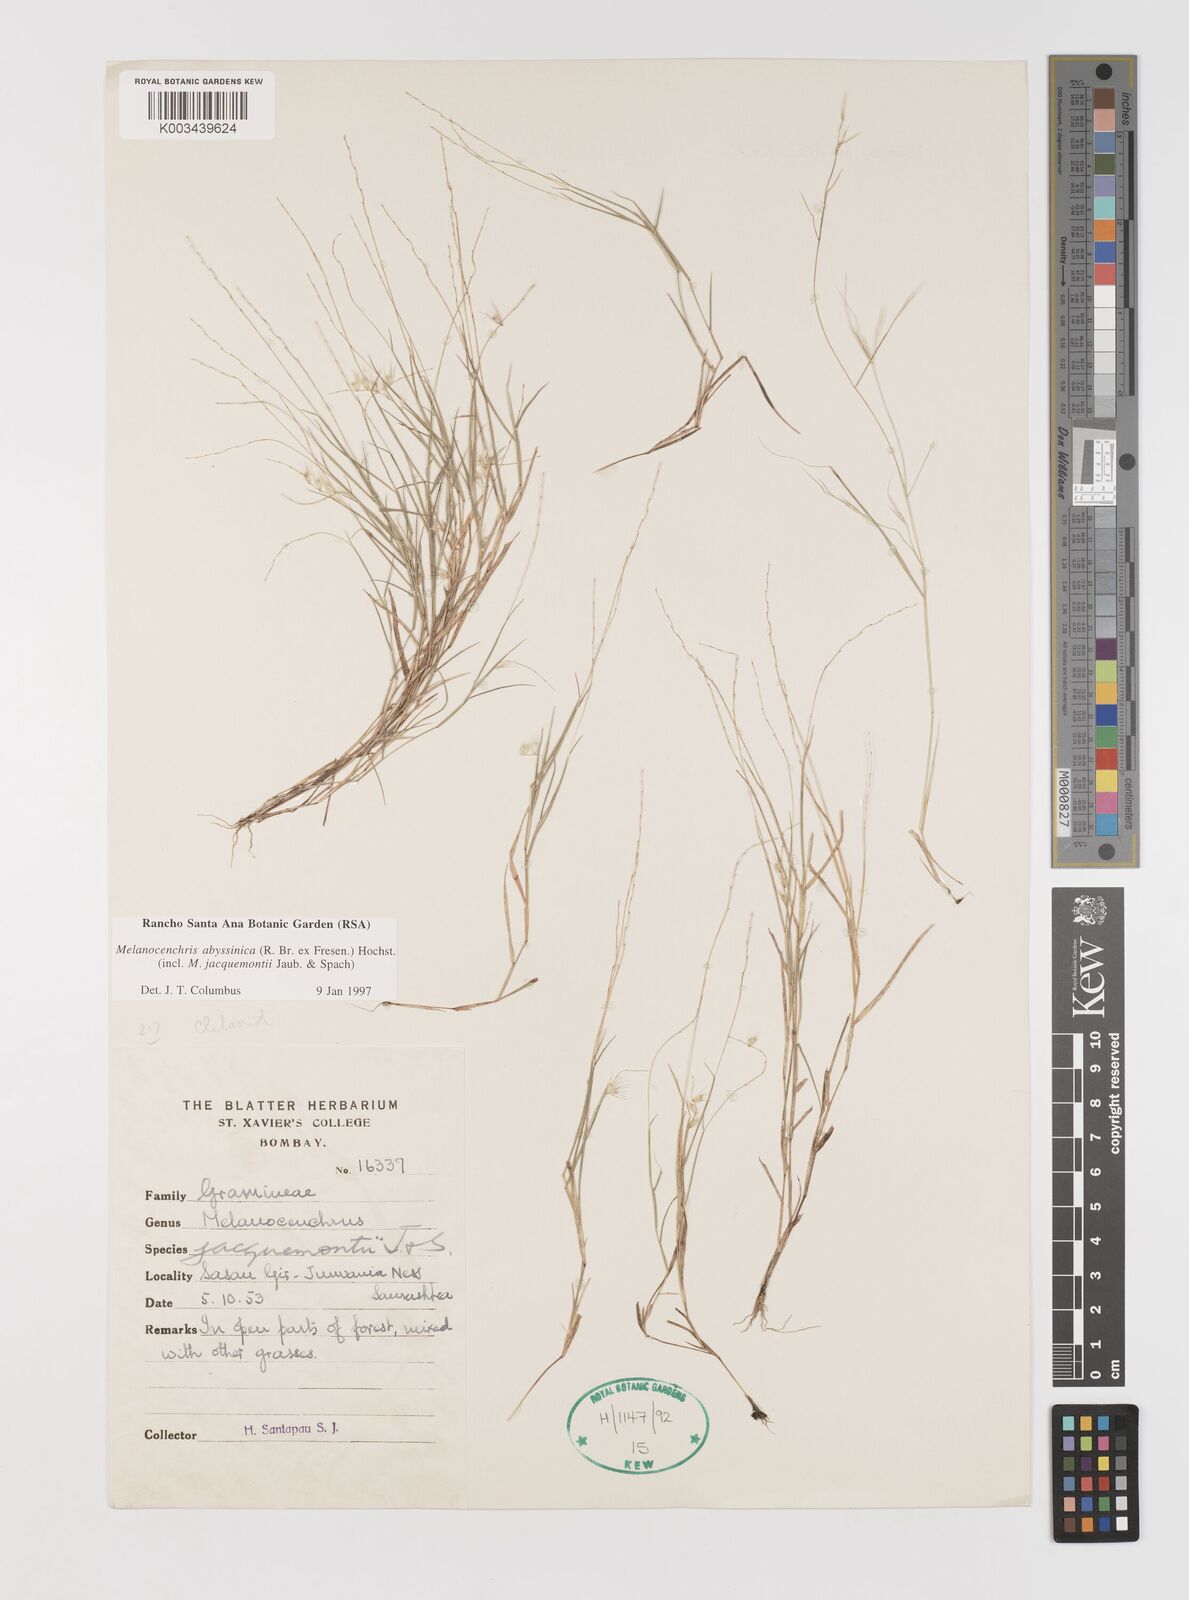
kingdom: Plantae
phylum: Tracheophyta
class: Liliopsida
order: Poales
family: Poaceae
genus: Melanocenchris
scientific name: Melanocenchris abyssinica
